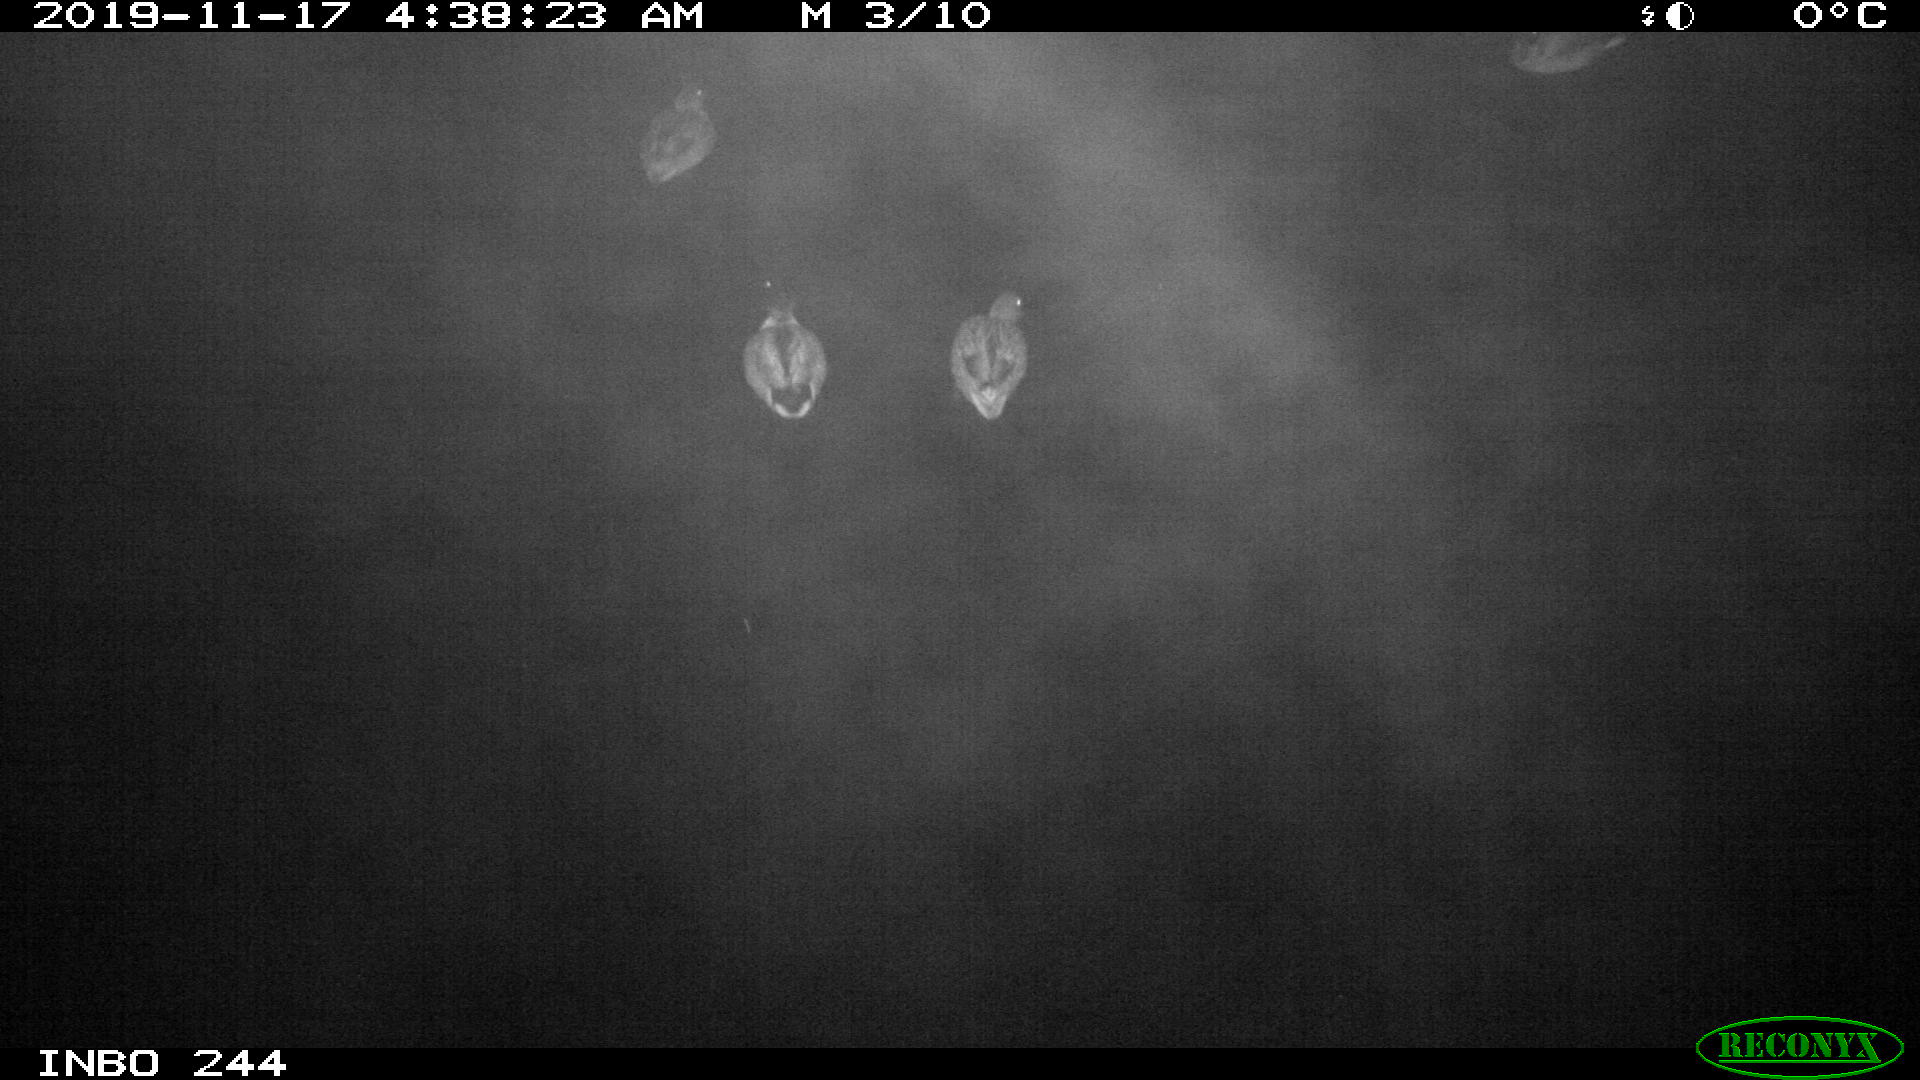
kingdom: Animalia
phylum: Chordata
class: Aves
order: Anseriformes
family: Anatidae
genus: Anas
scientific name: Anas platyrhynchos
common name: Mallard
